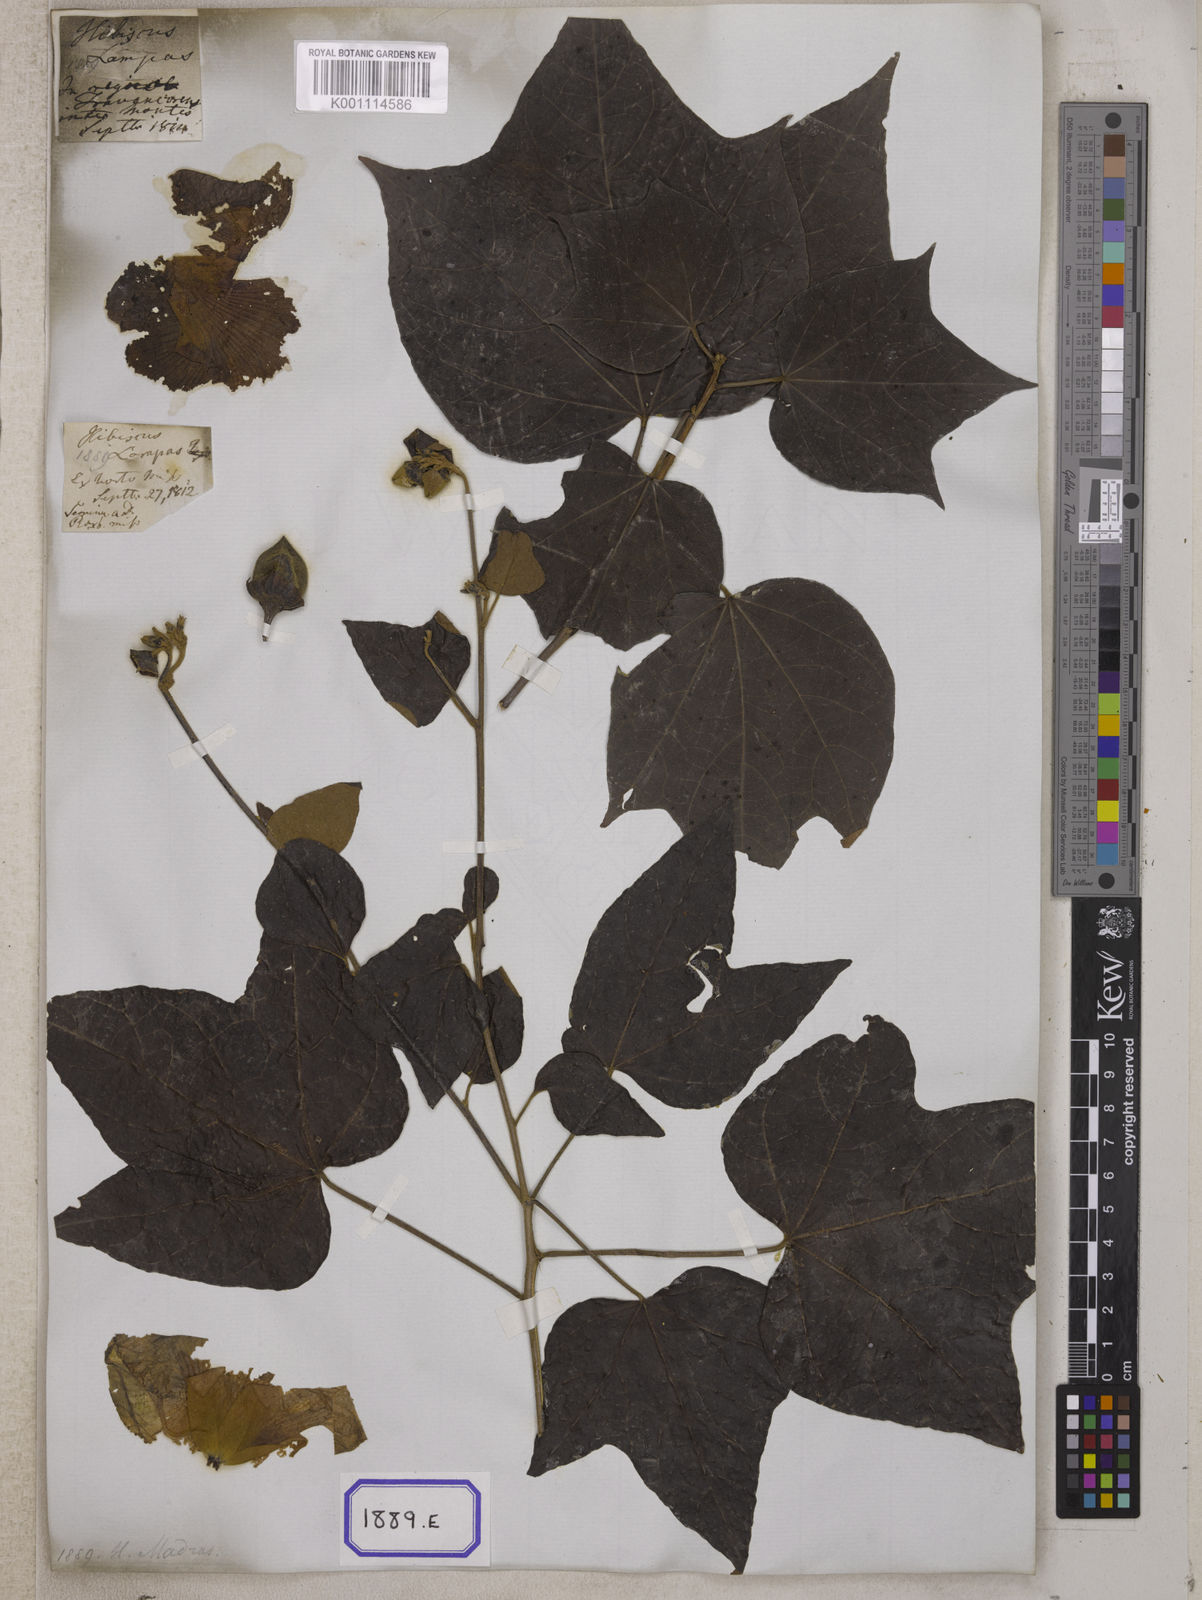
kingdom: Plantae
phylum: Tracheophyta
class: Magnoliopsida
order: Malvales
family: Malvaceae
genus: Thespesia
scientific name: Thespesia lampas
